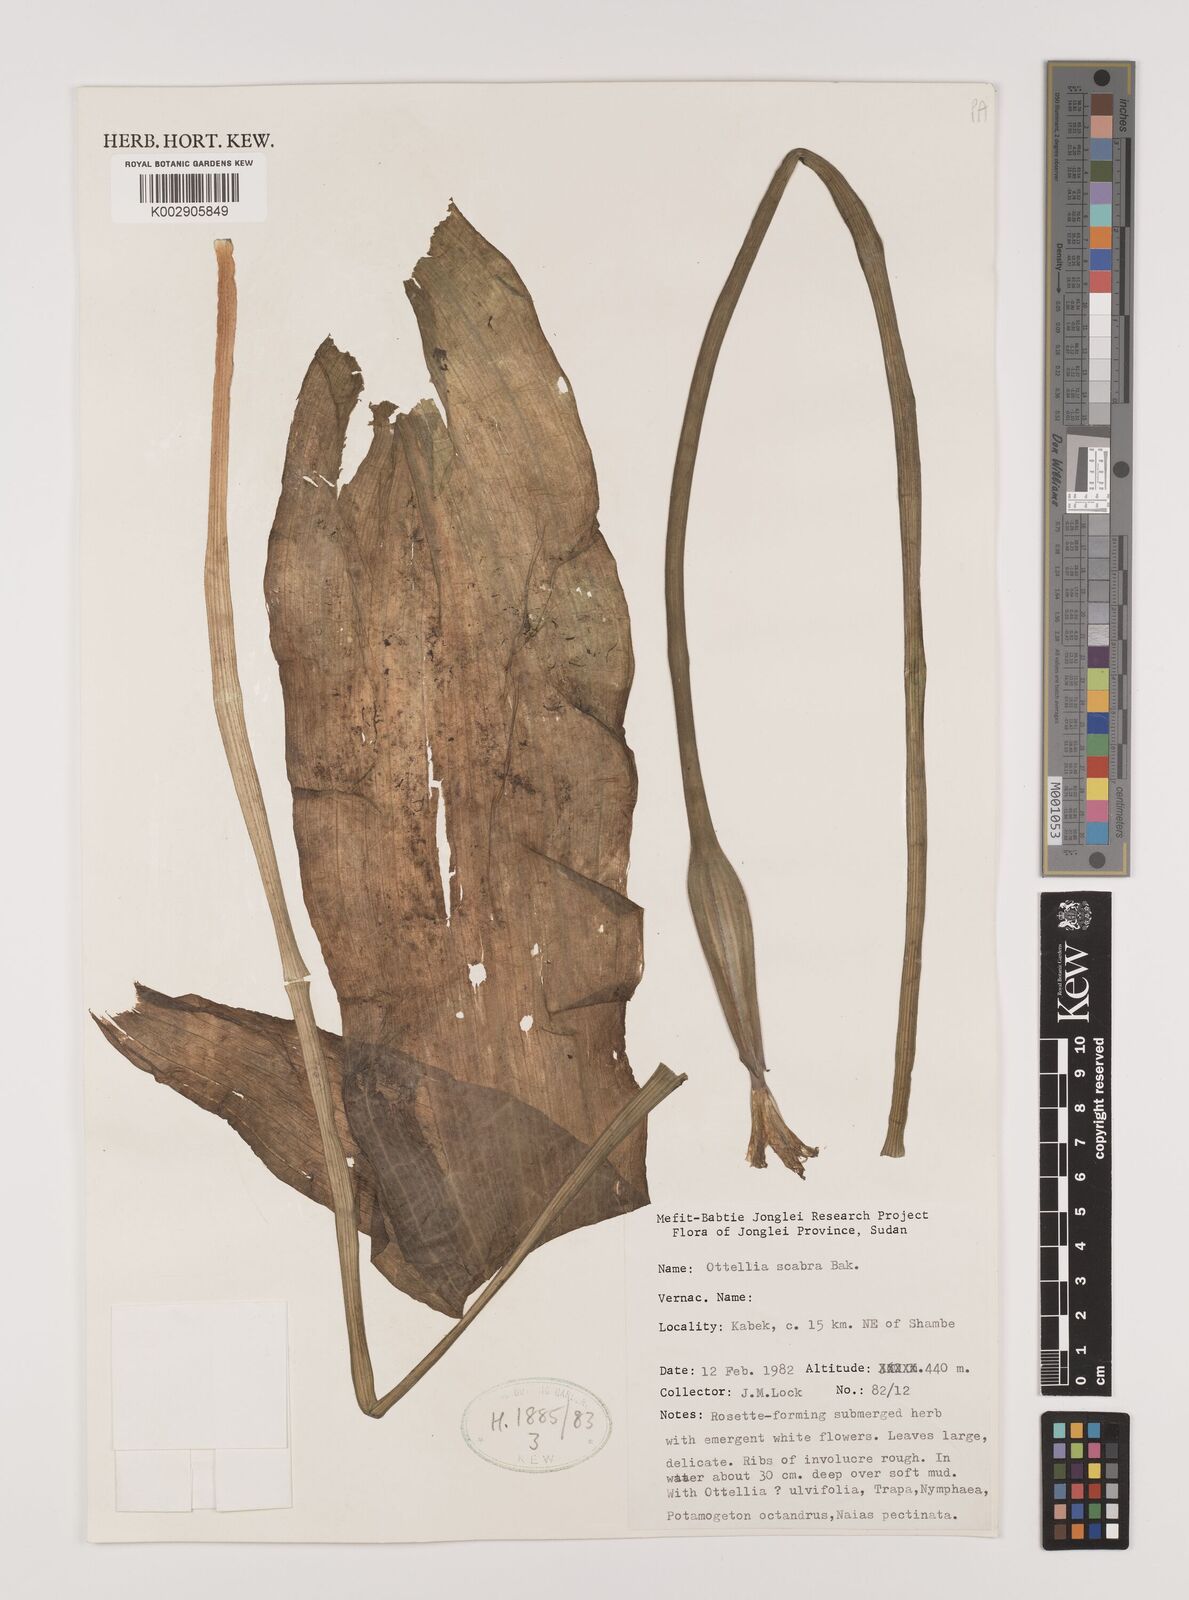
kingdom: Plantae
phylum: Tracheophyta
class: Liliopsida
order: Alismatales
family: Hydrocharitaceae
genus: Ottelia
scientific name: Ottelia scabra
